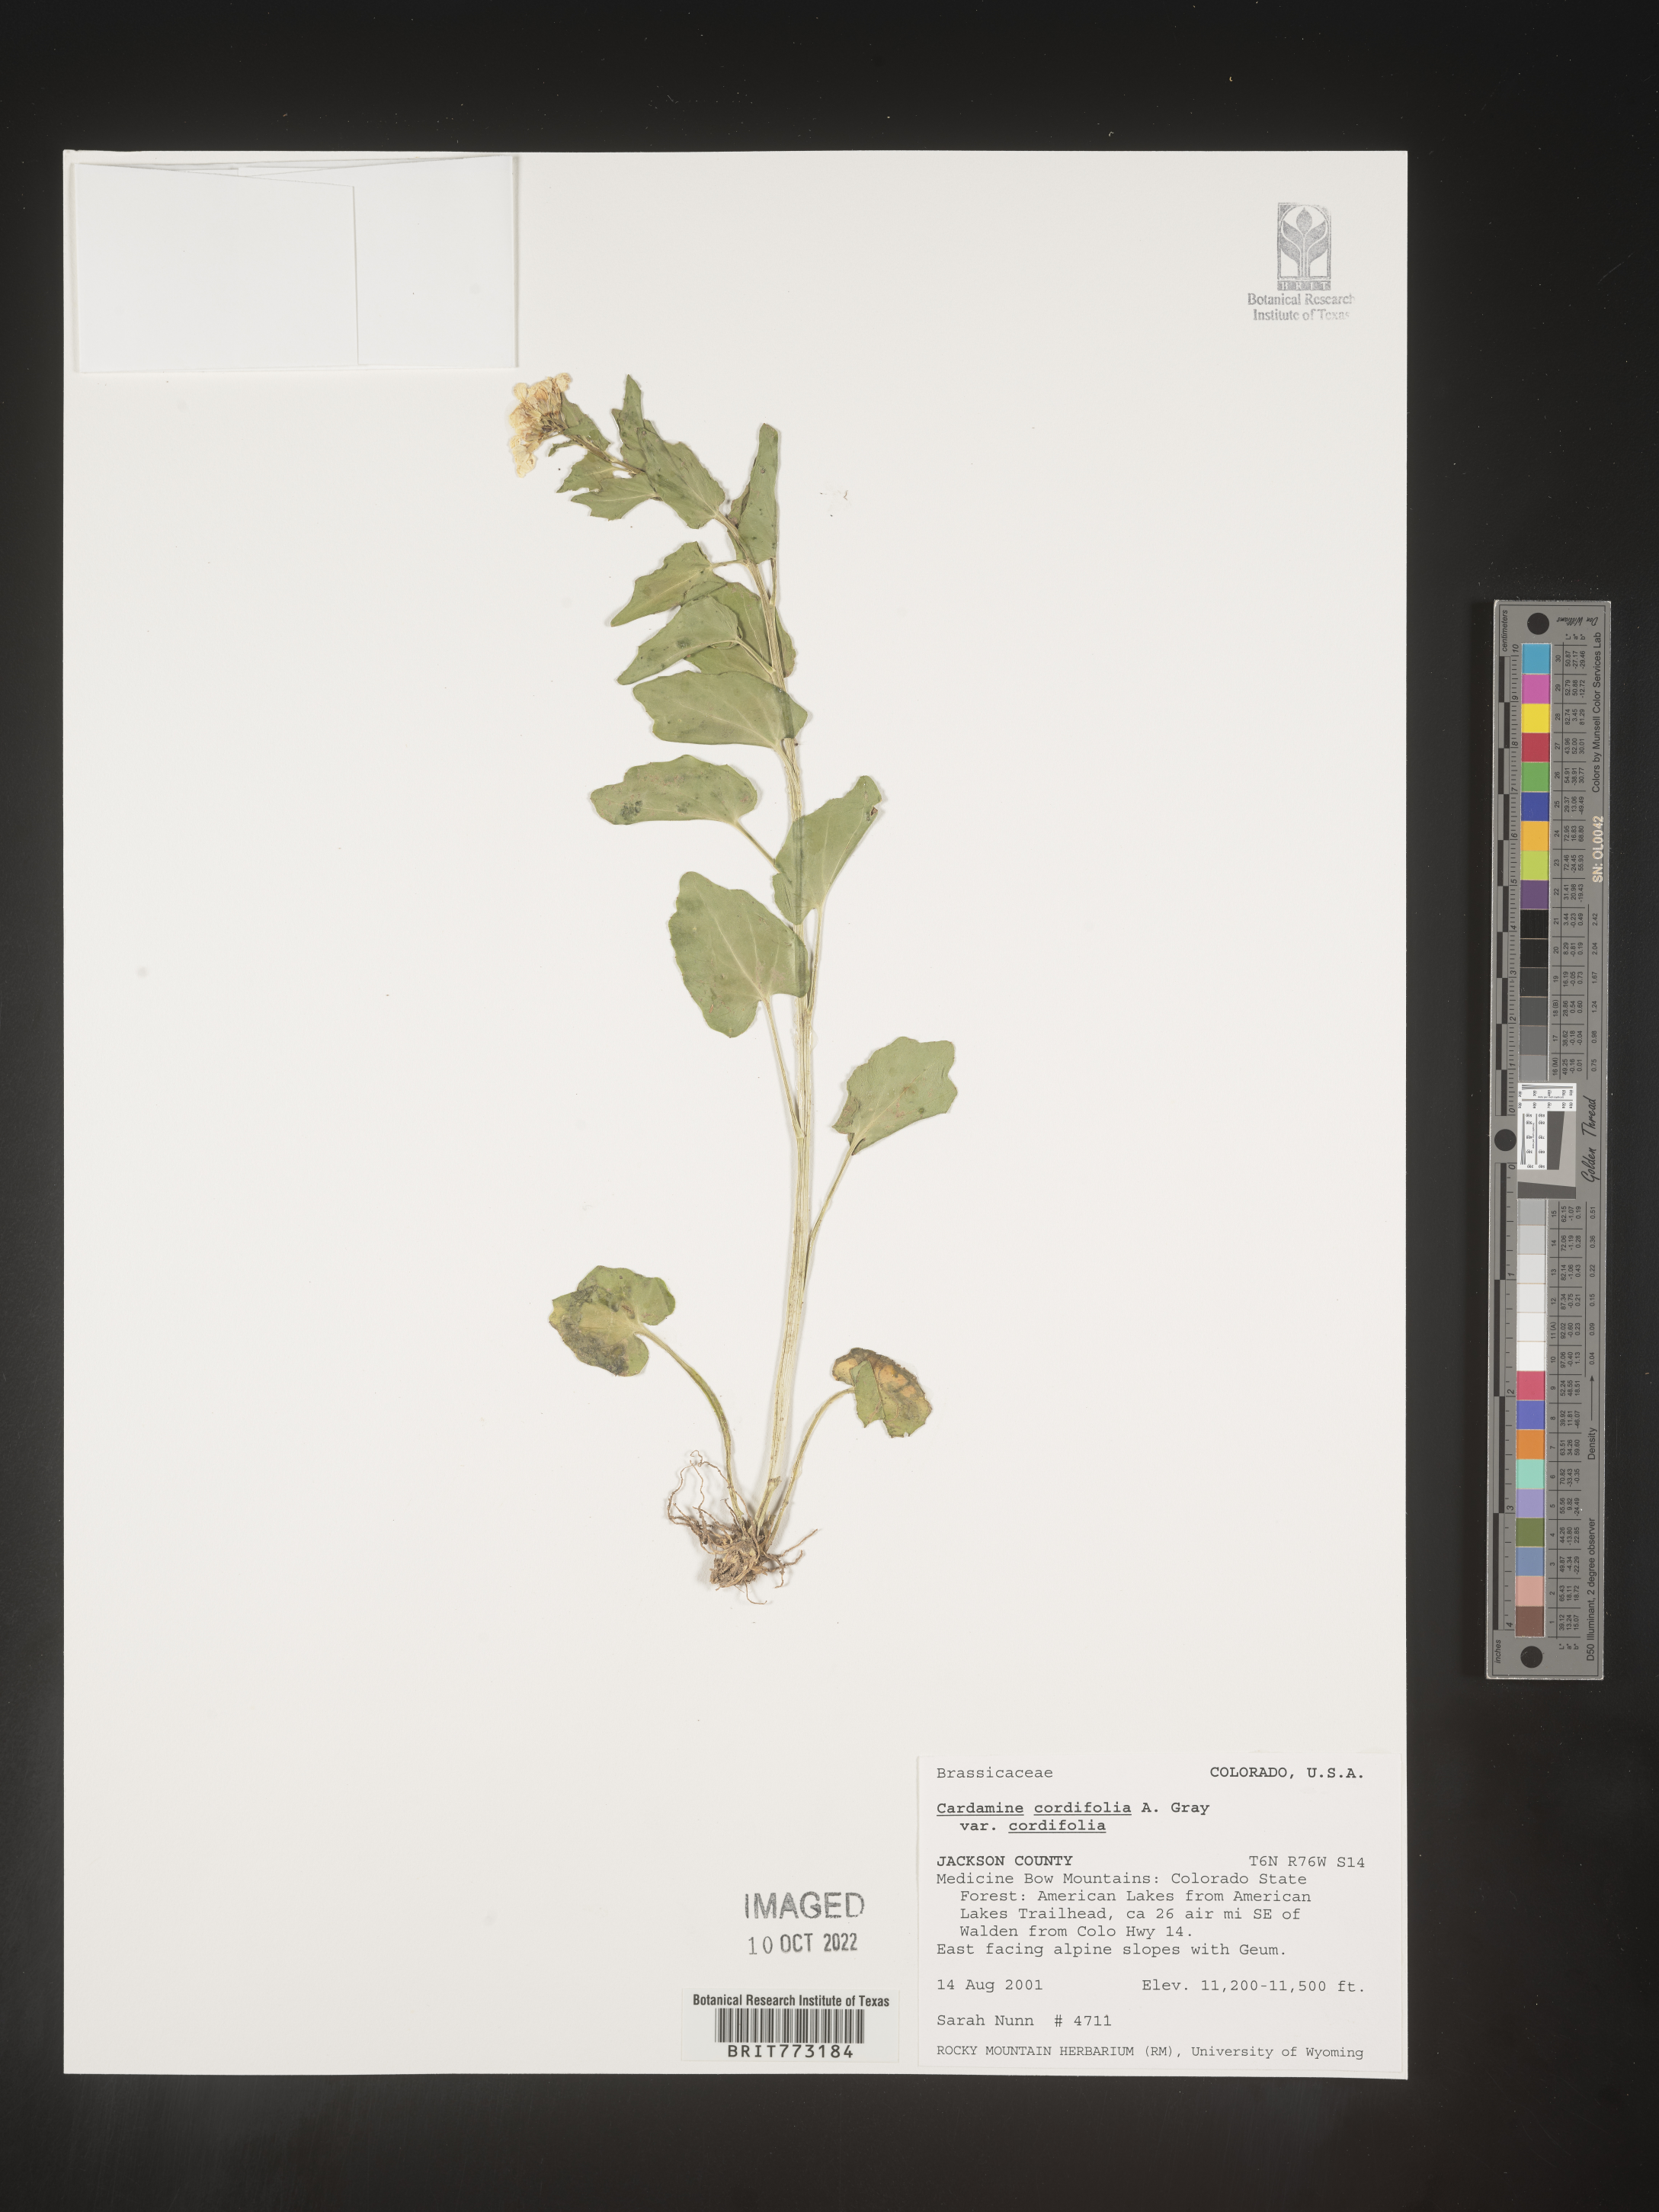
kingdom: Plantae
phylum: Tracheophyta
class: Magnoliopsida
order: Brassicales
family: Brassicaceae
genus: Cardamine
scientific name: Cardamine
